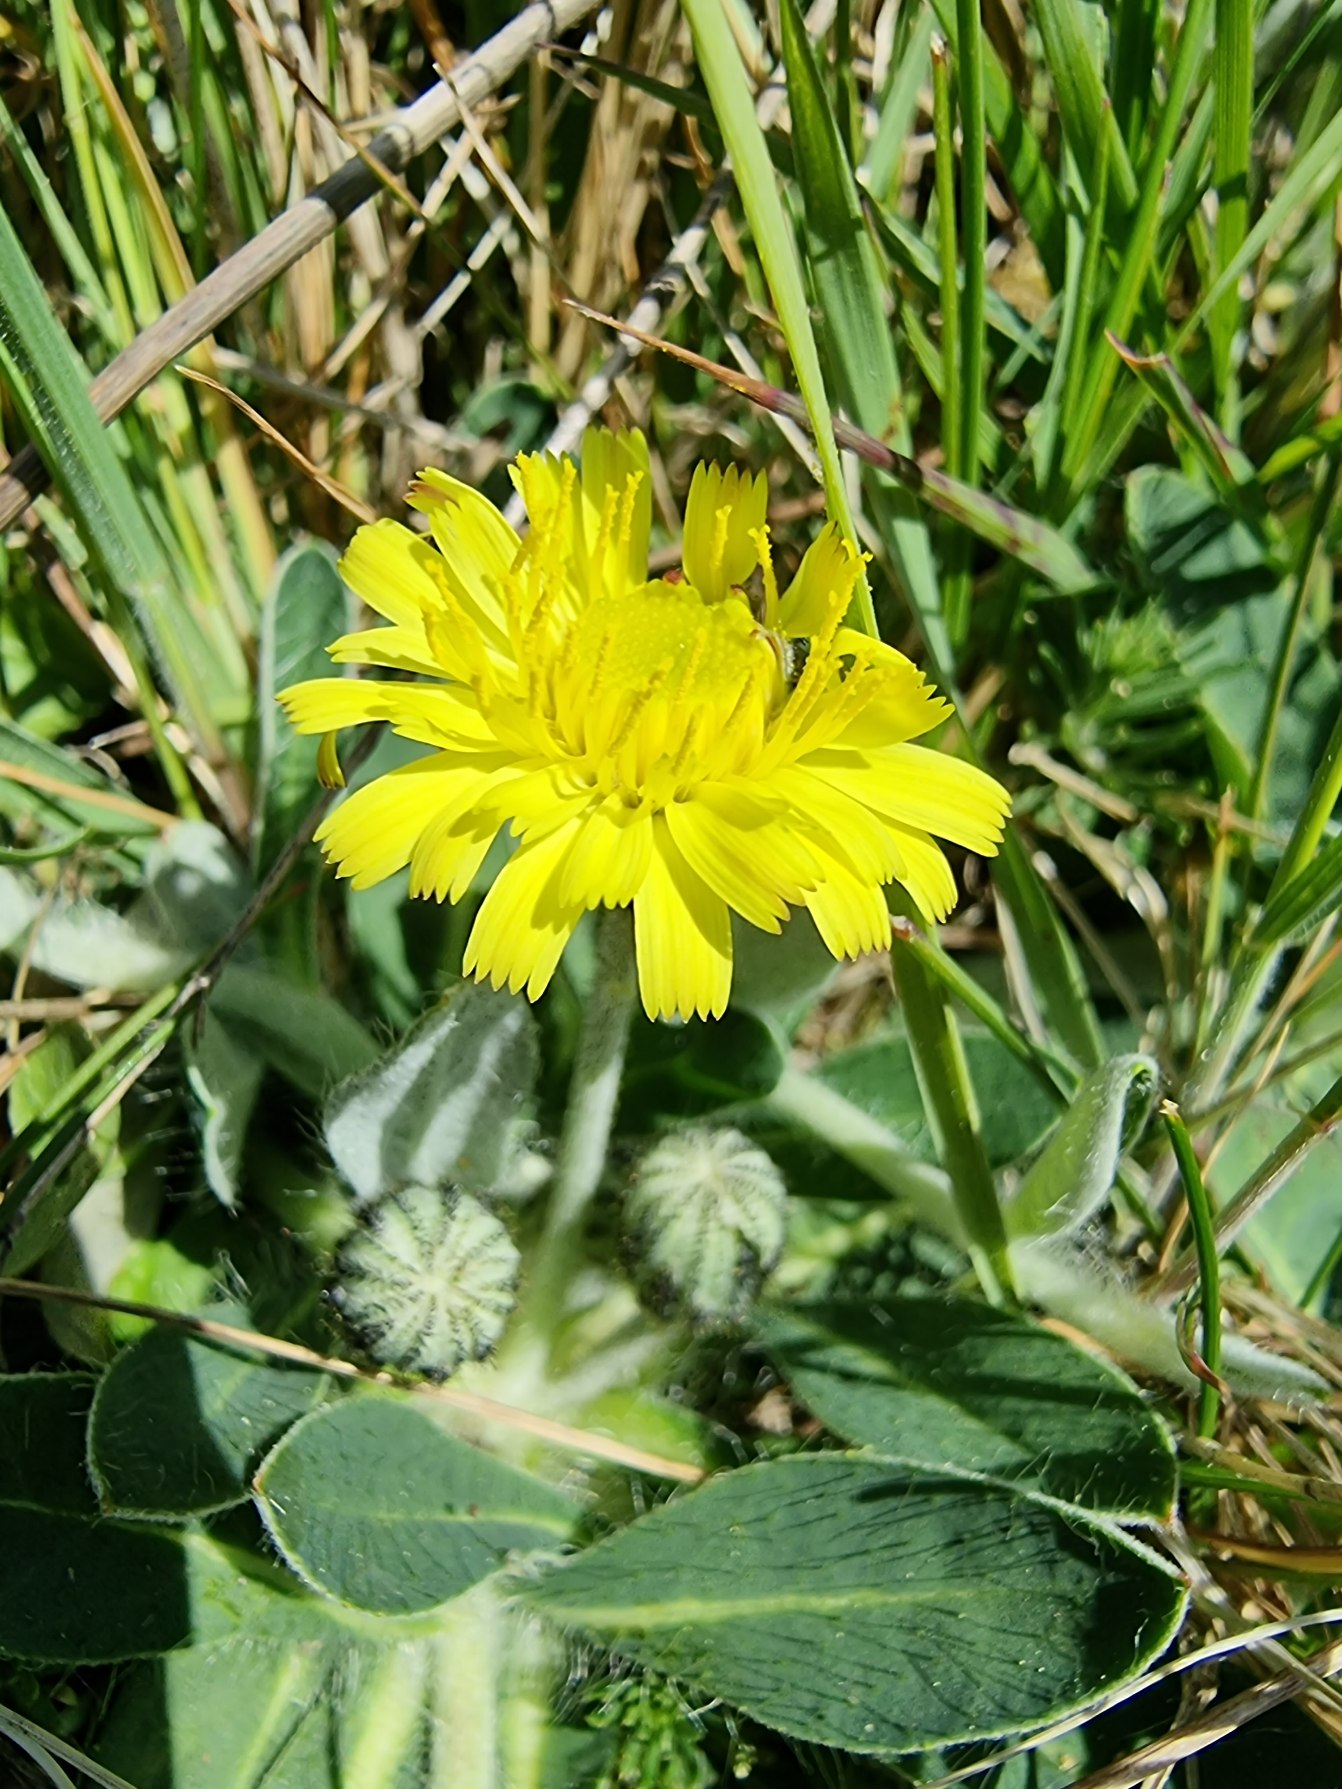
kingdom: Plantae
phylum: Tracheophyta
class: Magnoliopsida
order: Asterales
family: Asteraceae
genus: Pilosella
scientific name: Pilosella officinarum
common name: Håret høgeurt
